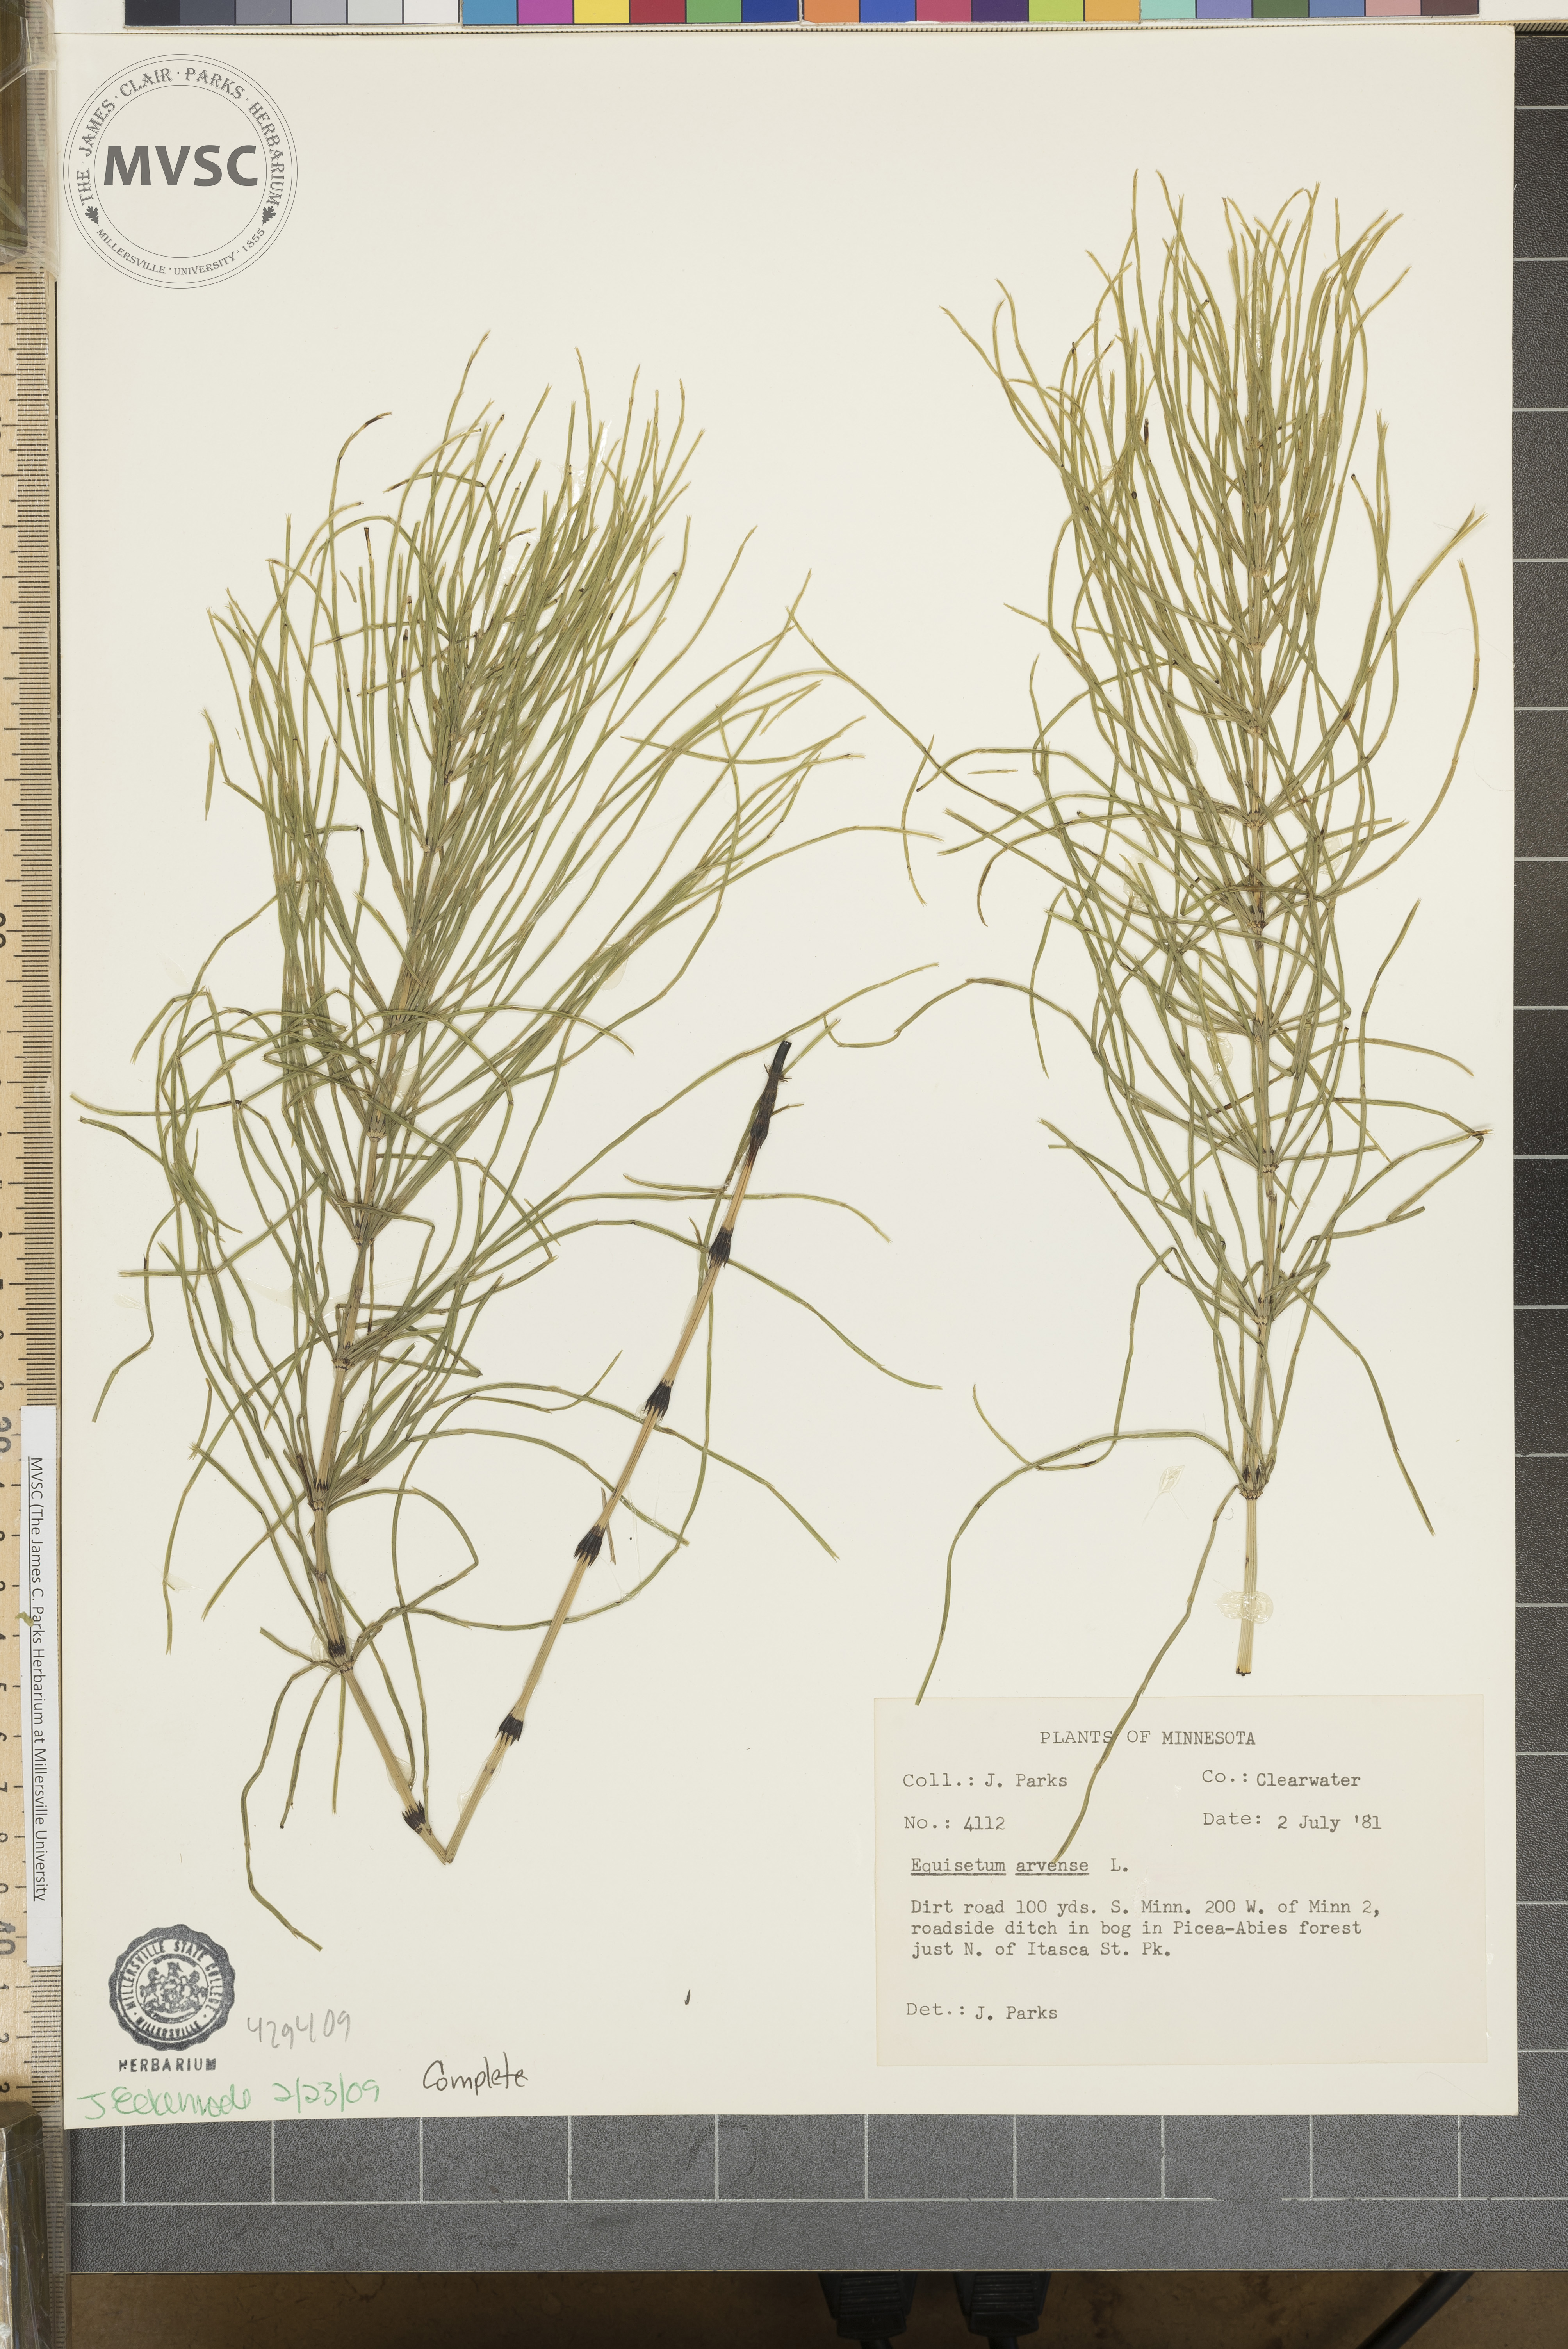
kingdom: Plantae
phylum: Tracheophyta
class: Polypodiopsida
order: Equisetales
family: Equisetaceae
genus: Equisetum
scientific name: Equisetum arvense
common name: Field horsetail
